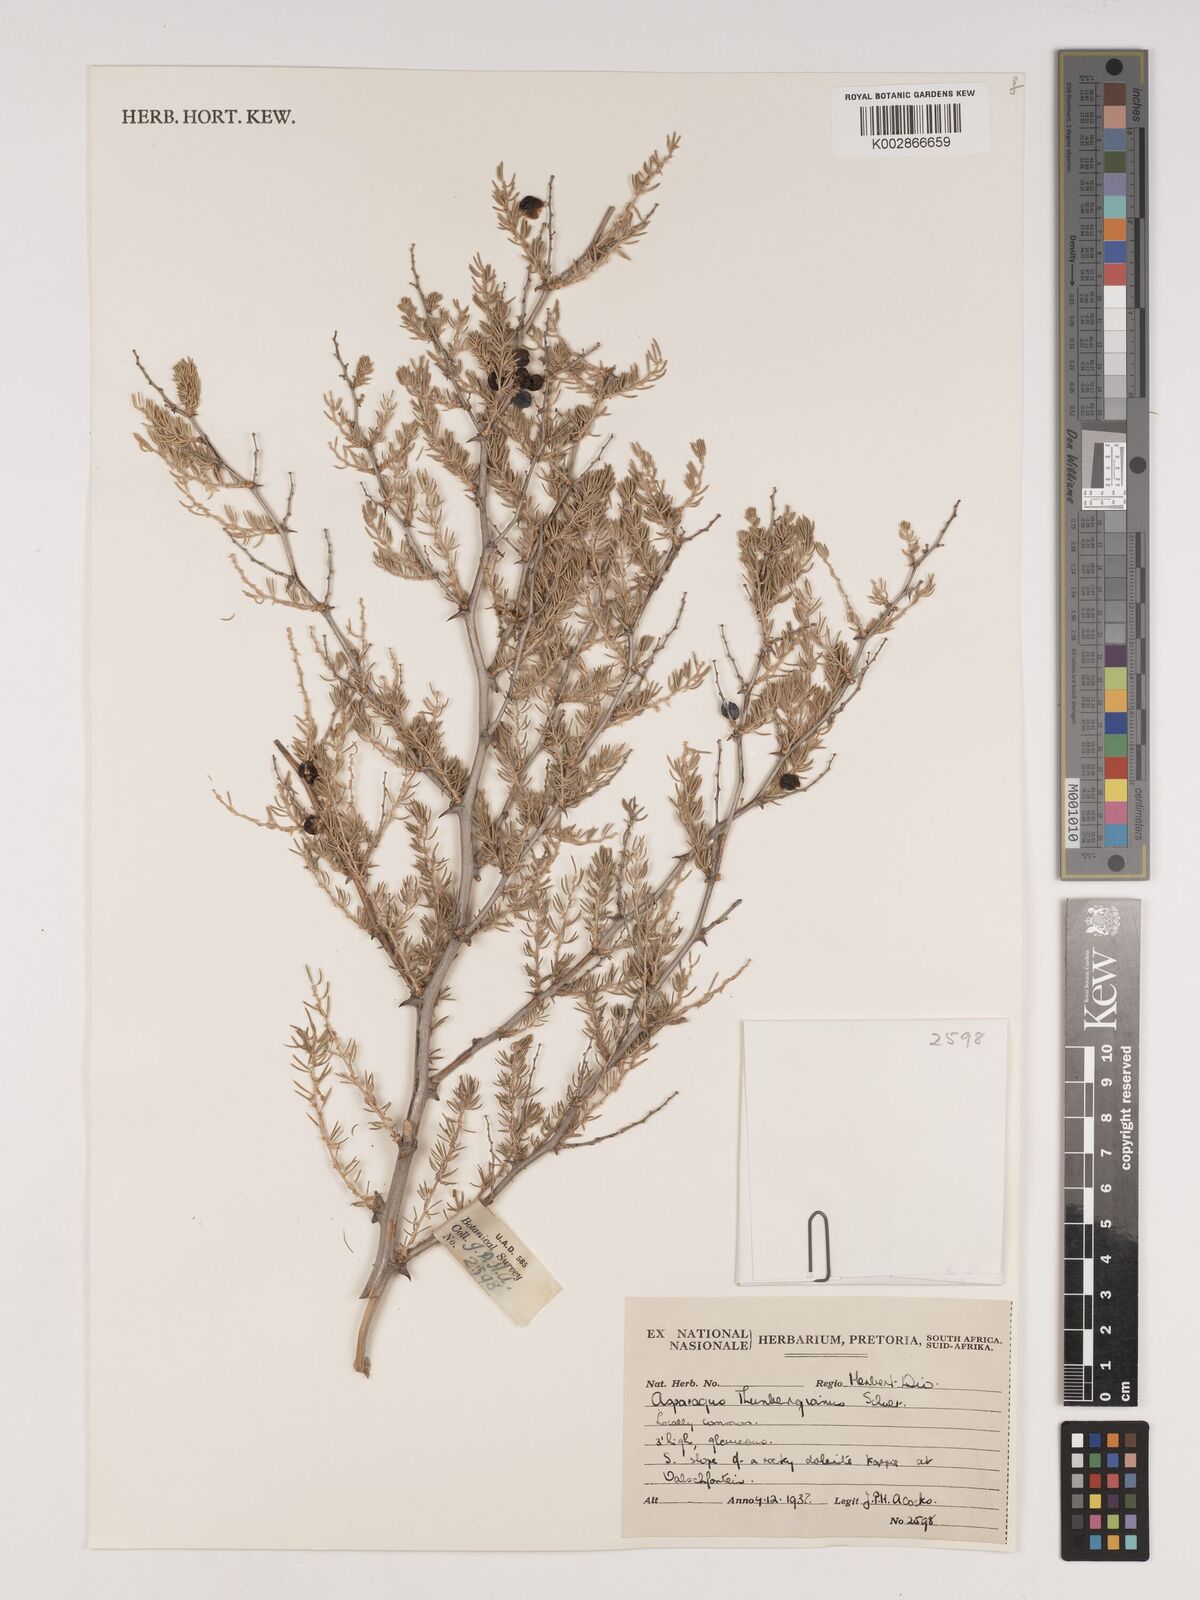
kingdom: Plantae
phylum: Tracheophyta
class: Liliopsida
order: Asparagales
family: Asparagaceae
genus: Asparagus
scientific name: Asparagus rubicundus
